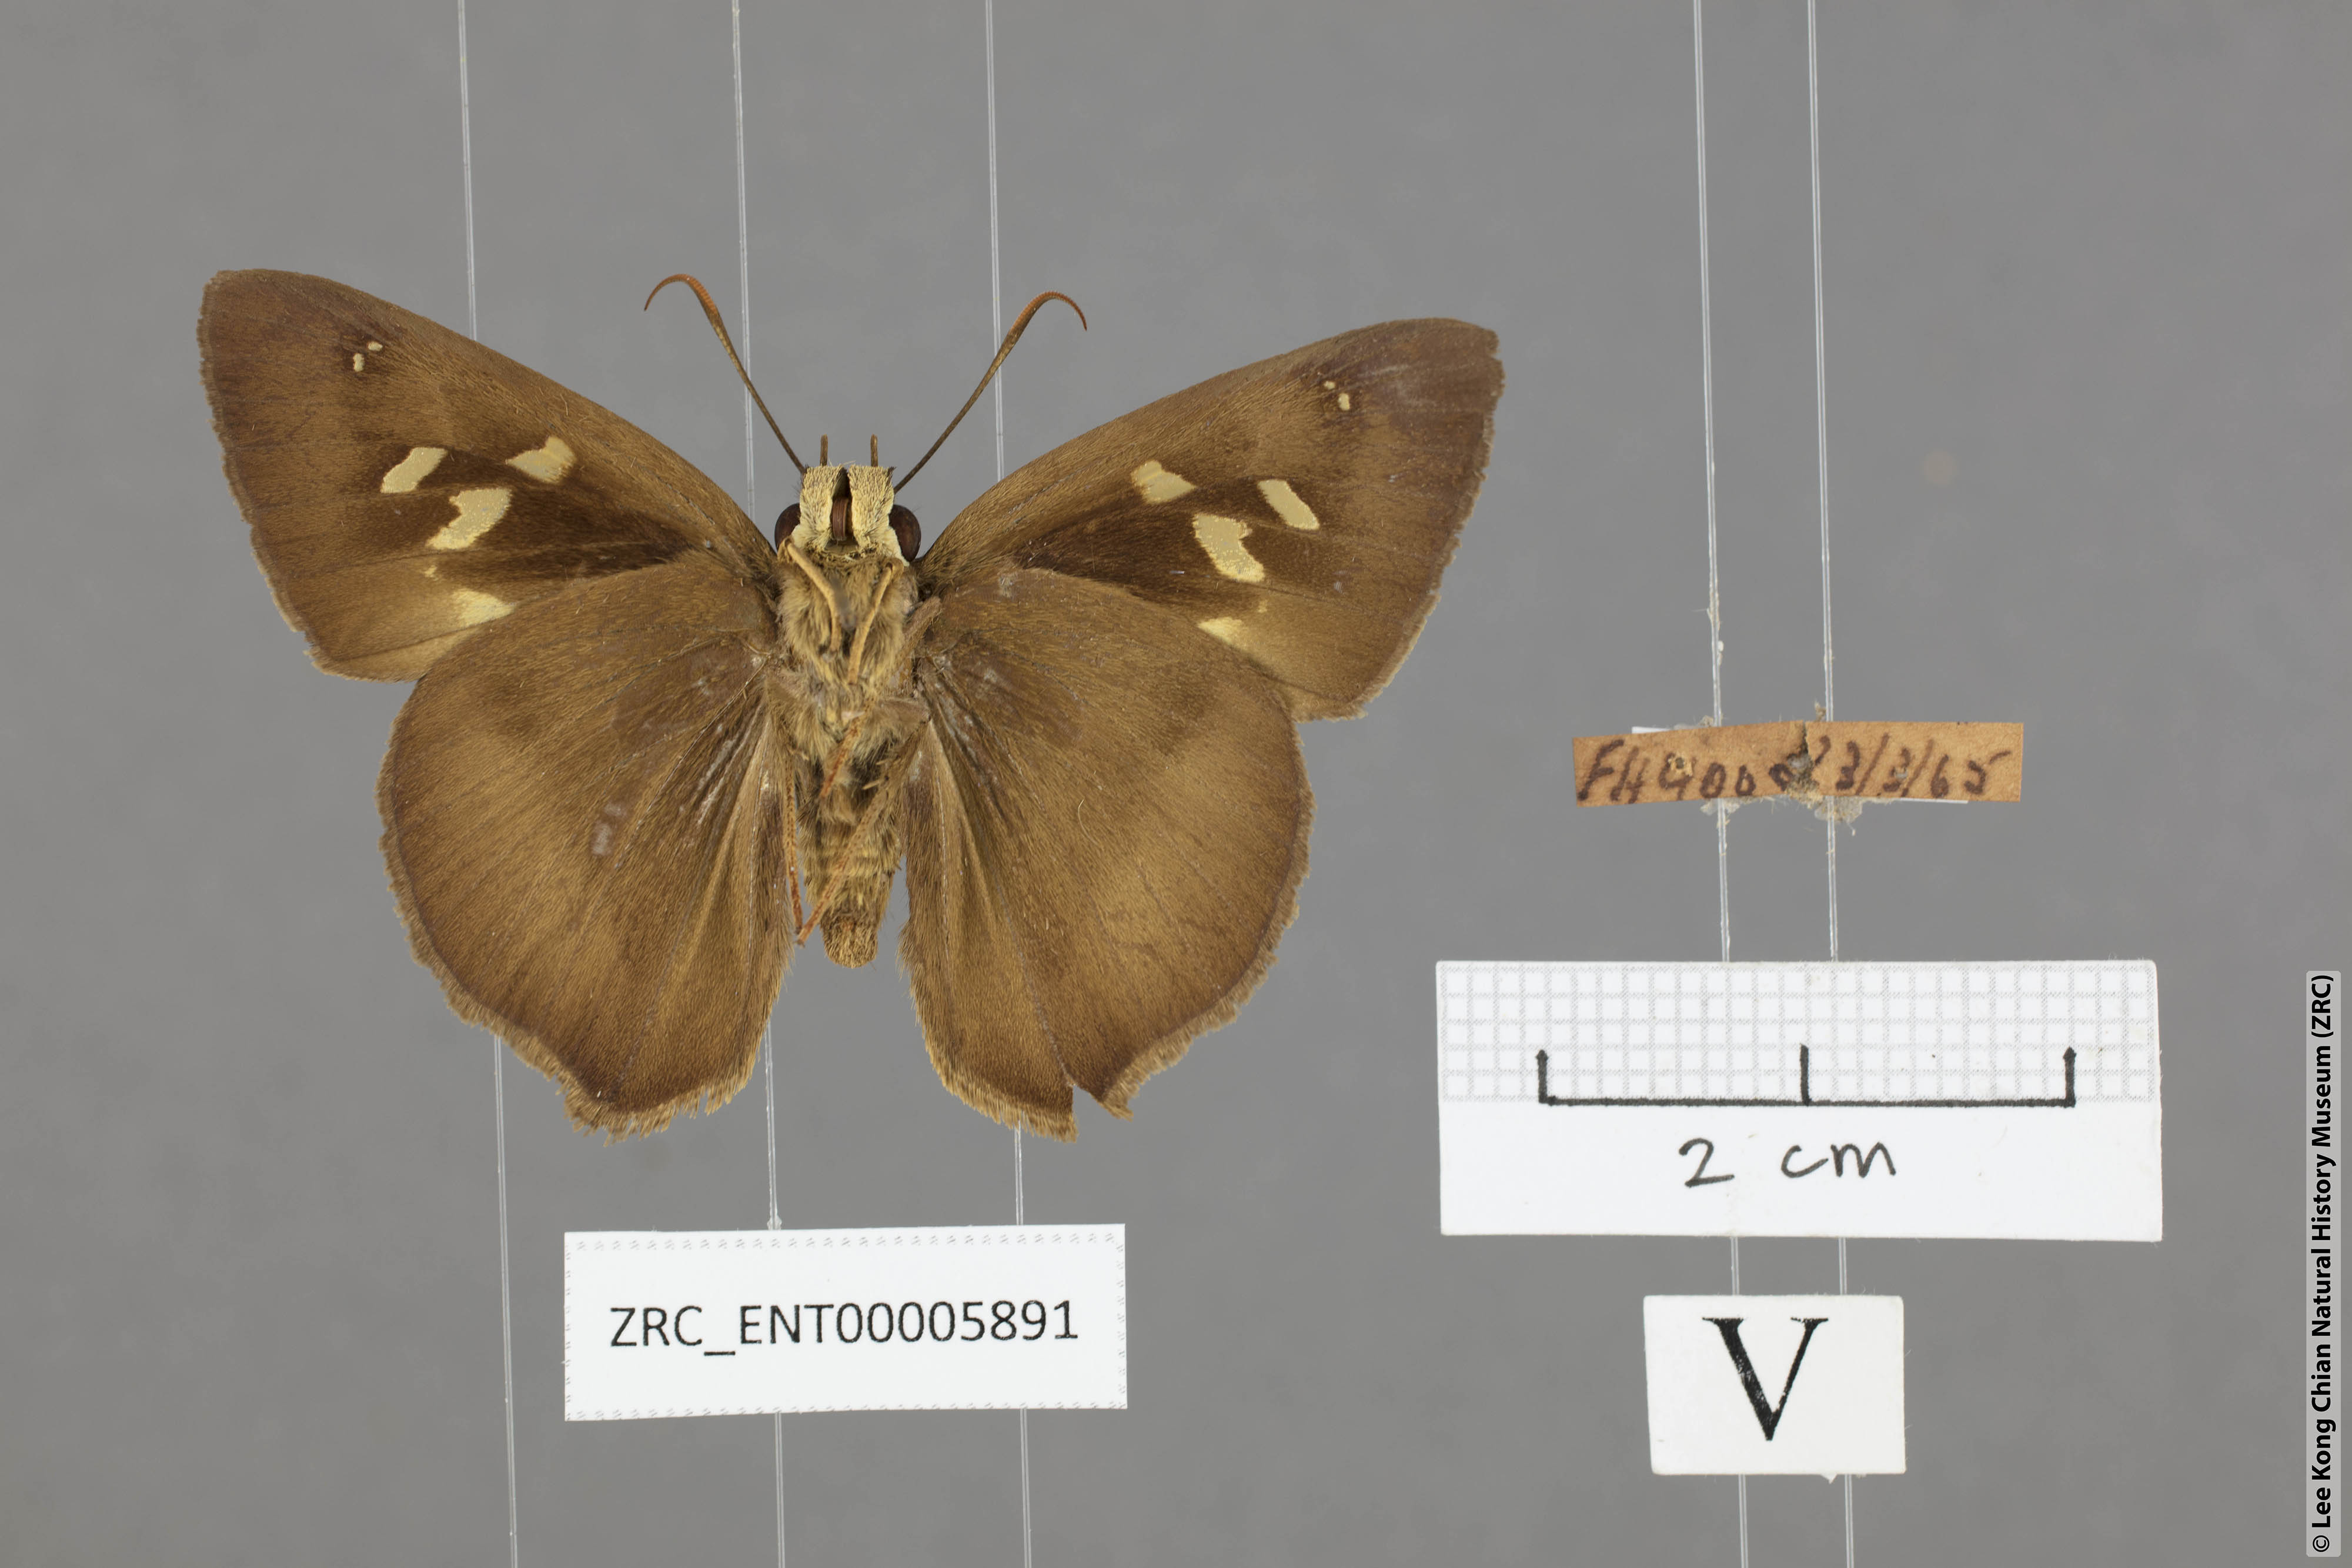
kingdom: Animalia
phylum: Arthropoda
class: Insecta
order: Lepidoptera
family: Hesperiidae
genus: Hasora
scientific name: Hasora myra
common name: Pale-tailed awl
